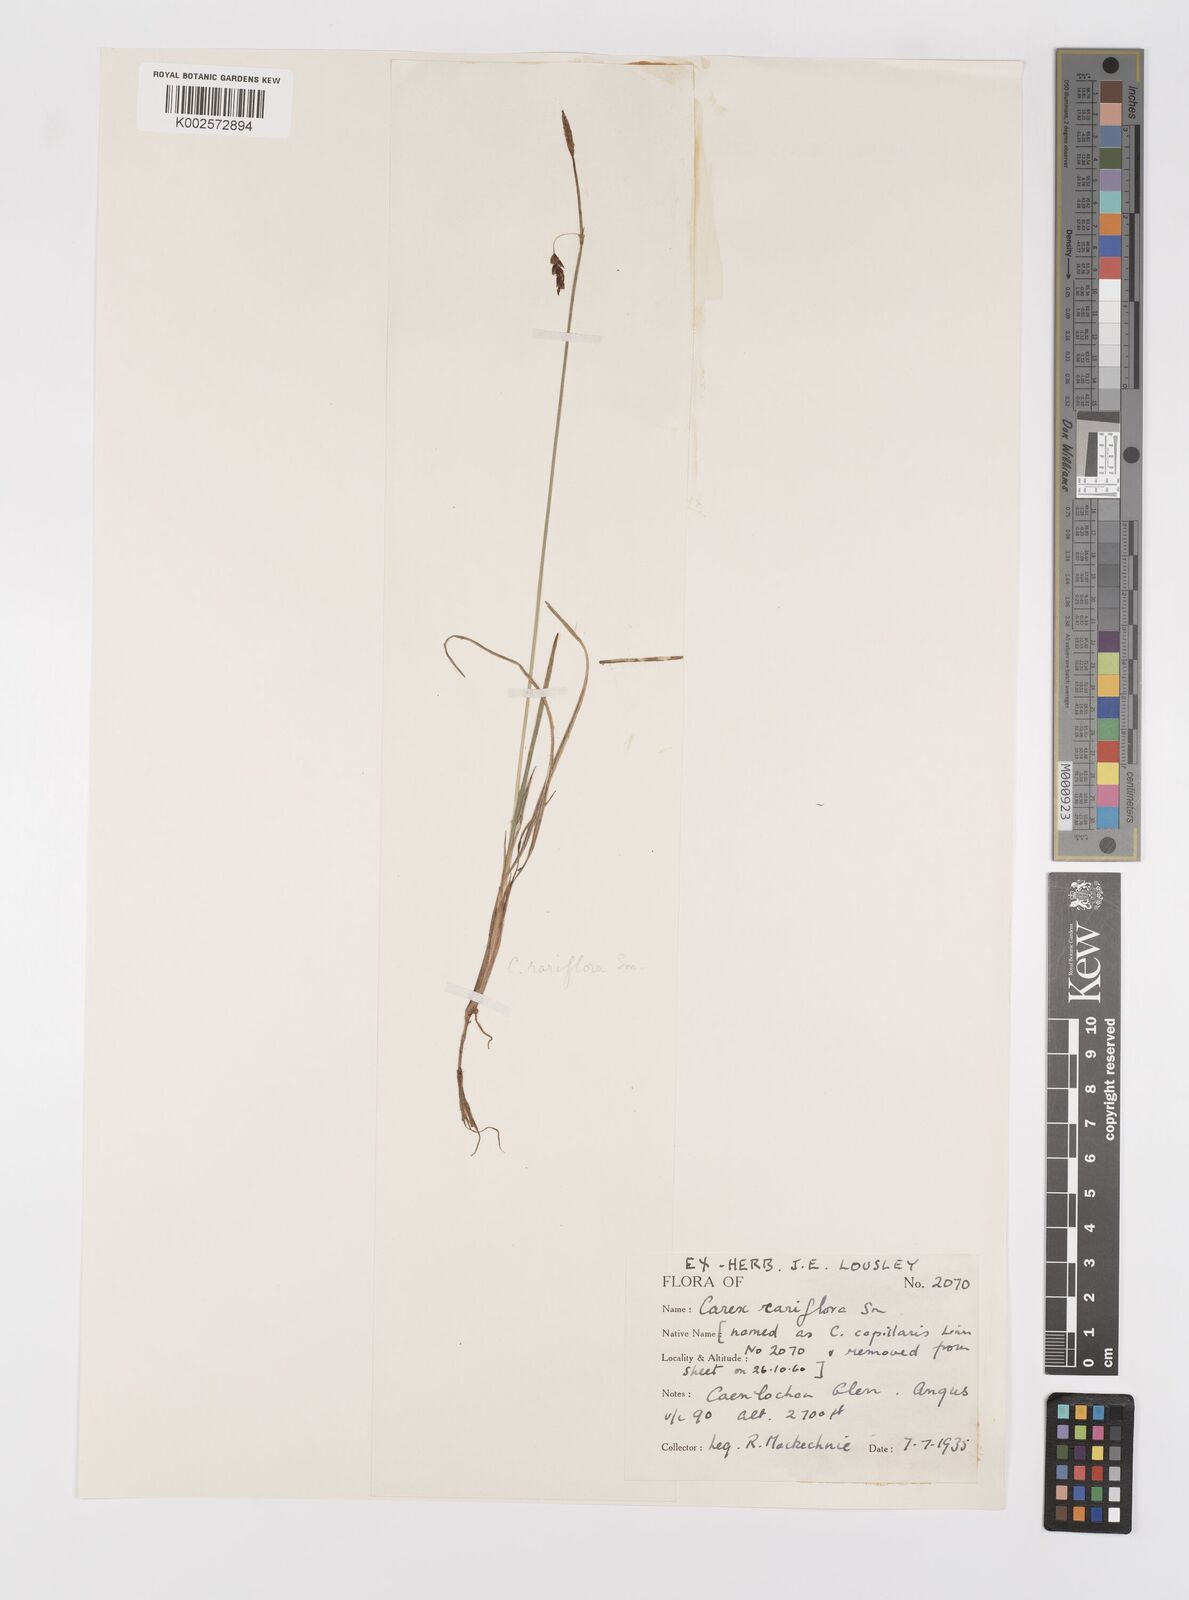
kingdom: Plantae
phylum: Tracheophyta
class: Liliopsida
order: Poales
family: Cyperaceae
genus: Carex
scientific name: Carex rariflora
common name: Loose-flowered alpine sedge
